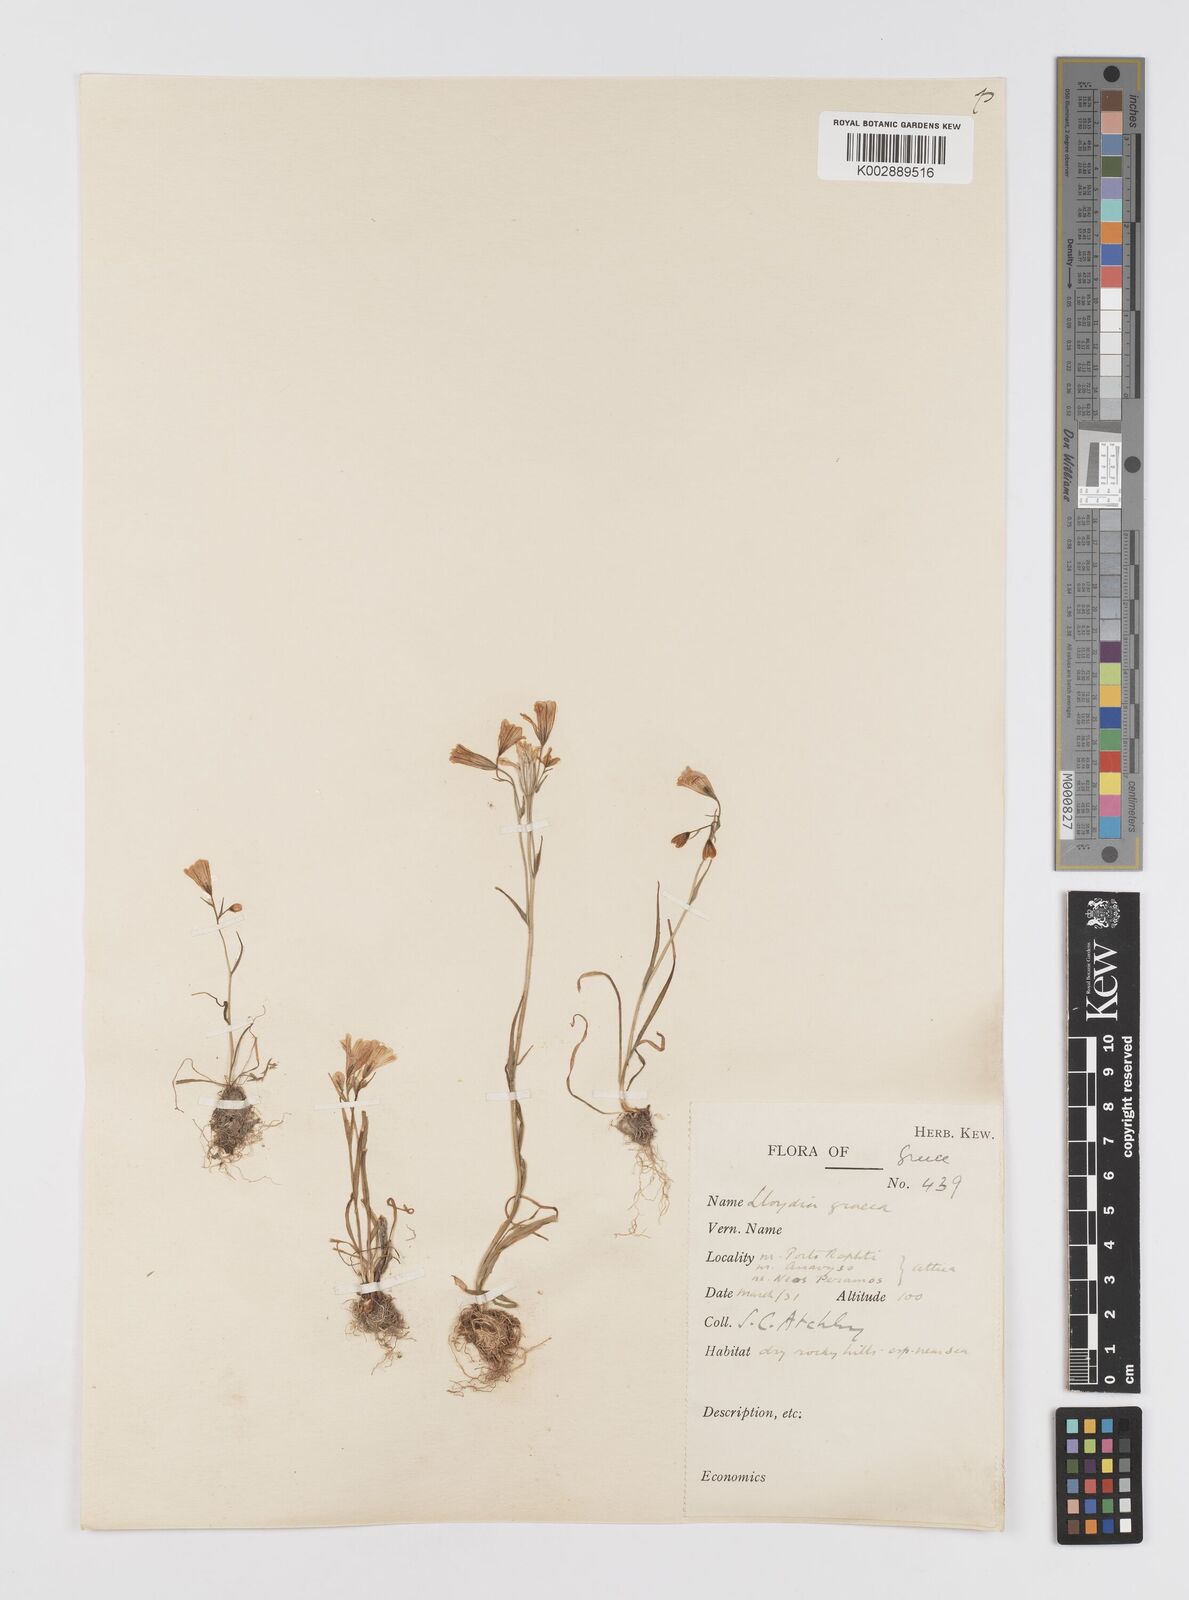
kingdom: Plantae
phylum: Tracheophyta
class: Liliopsida
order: Liliales
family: Liliaceae
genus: Gagea
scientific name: Gagea graeca
